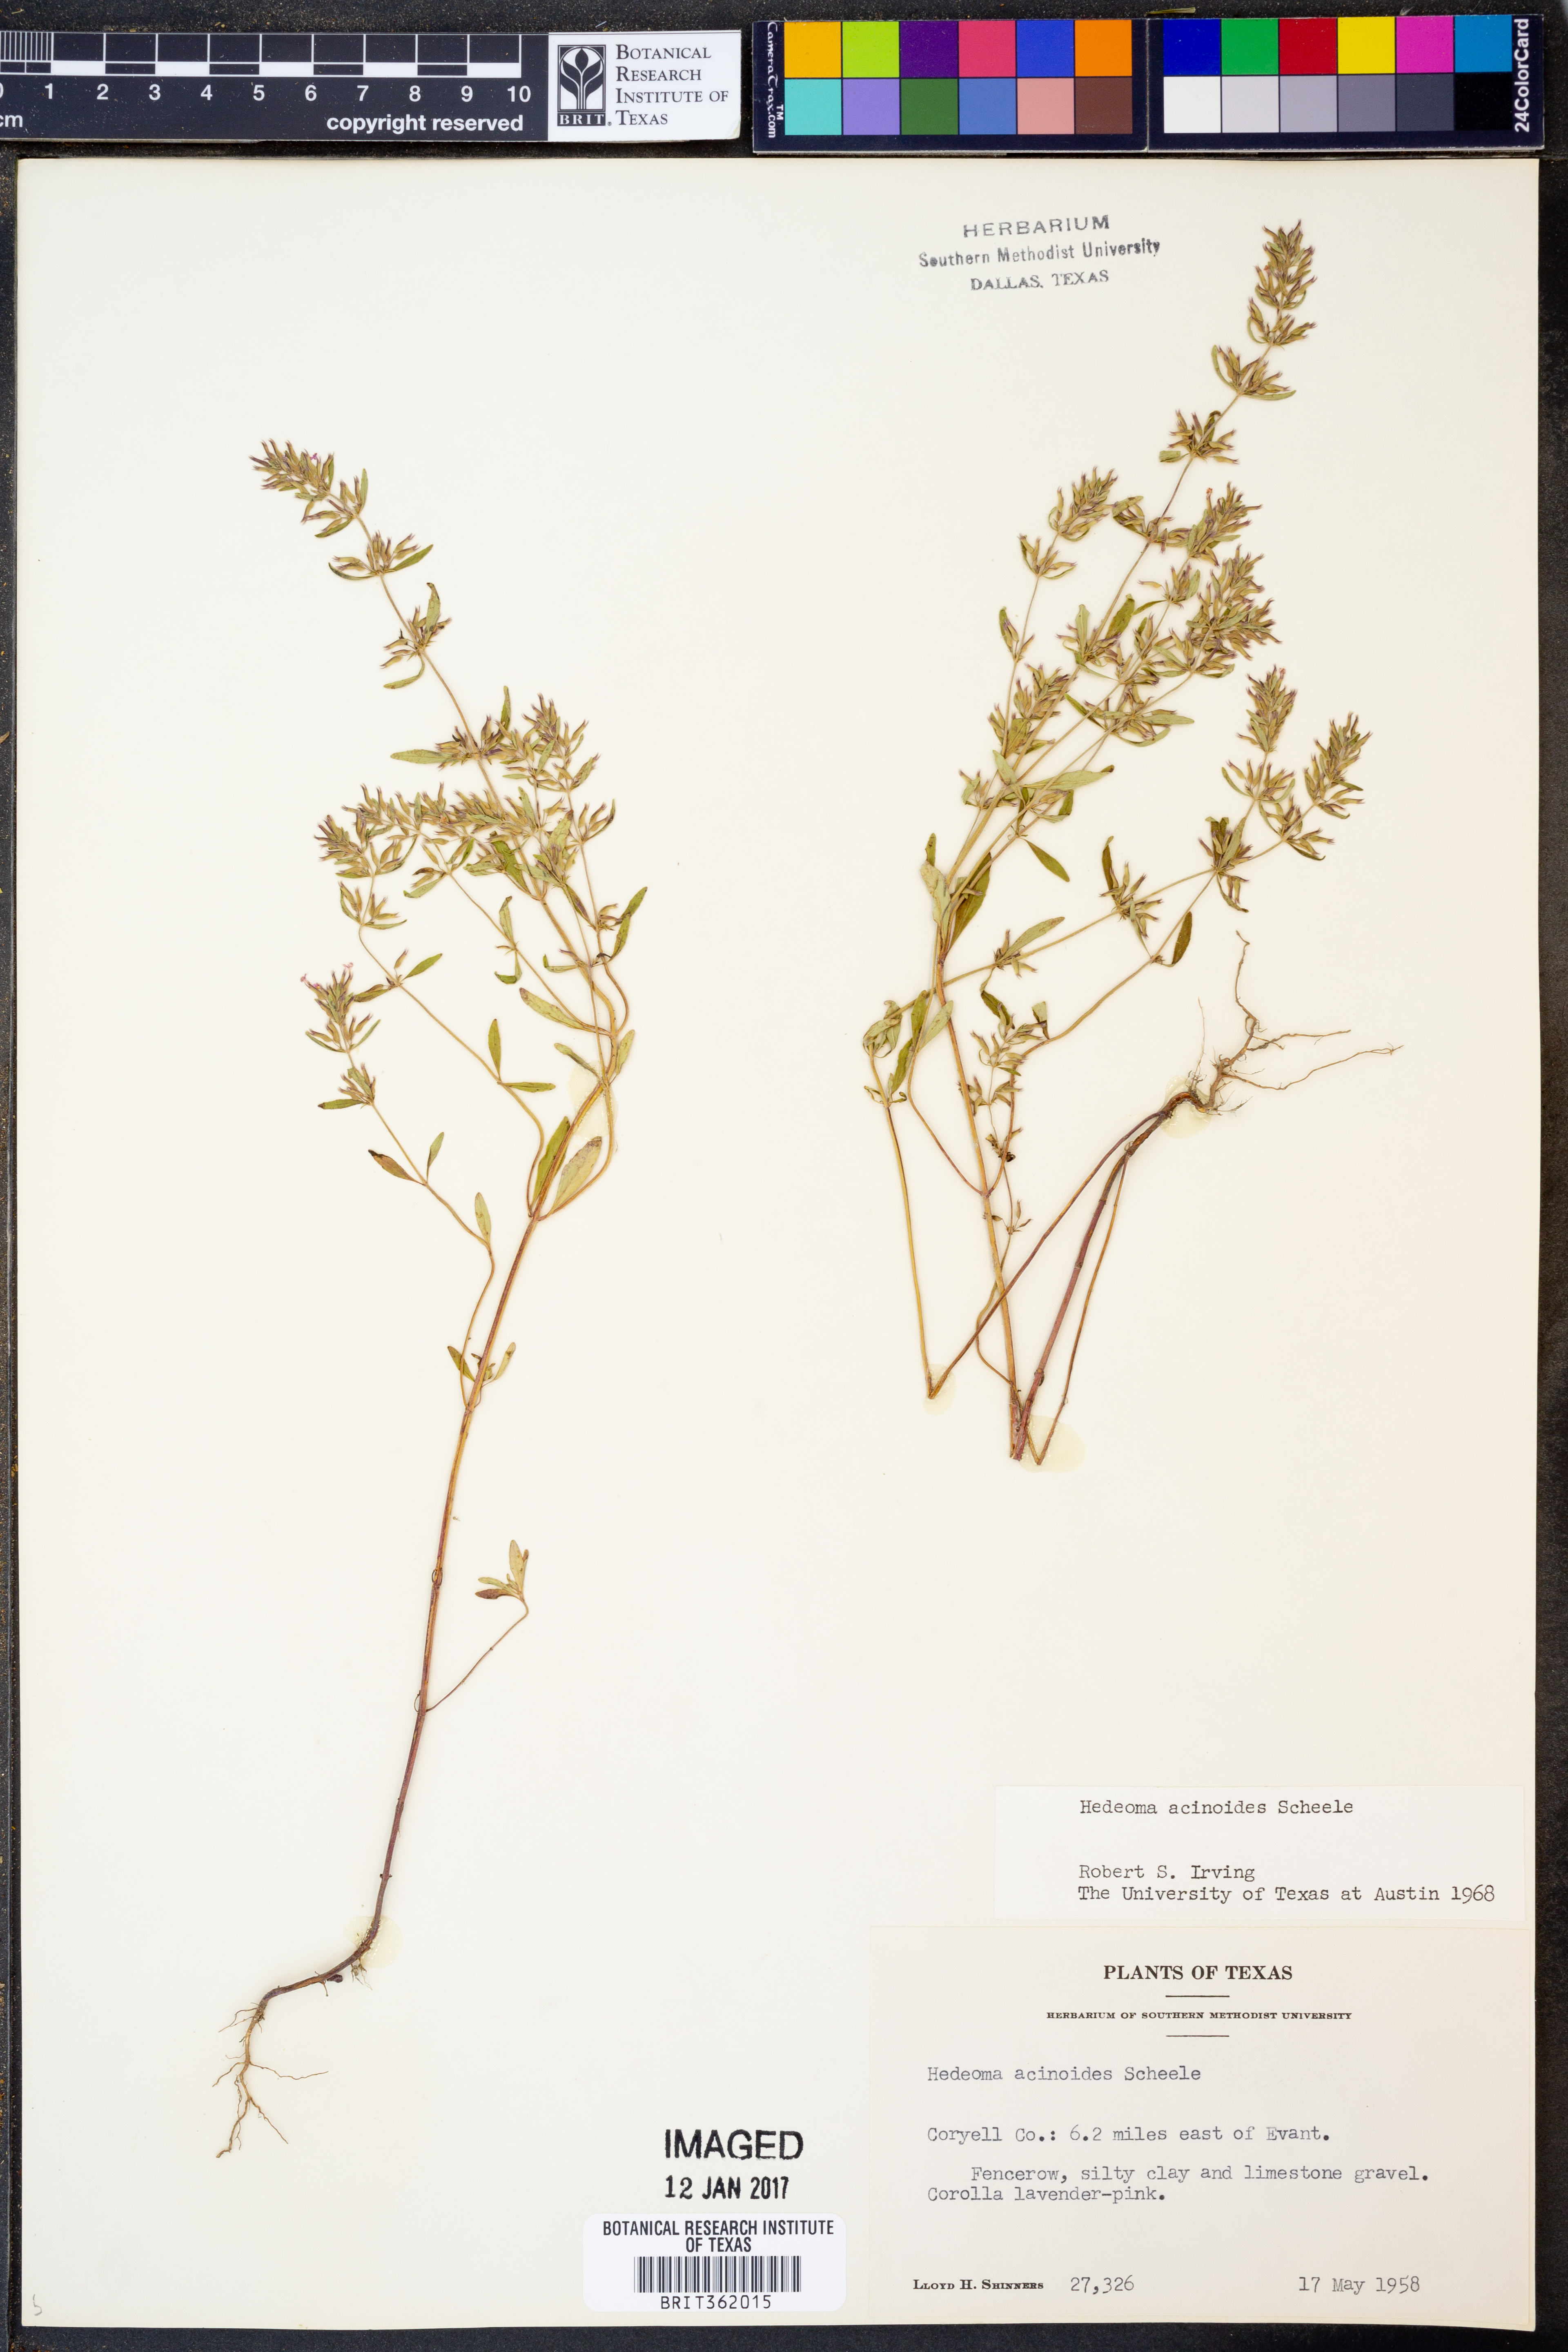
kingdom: Plantae
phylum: Tracheophyta
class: Magnoliopsida
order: Lamiales
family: Lamiaceae
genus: Hedeoma
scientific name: Hedeoma acinoides
